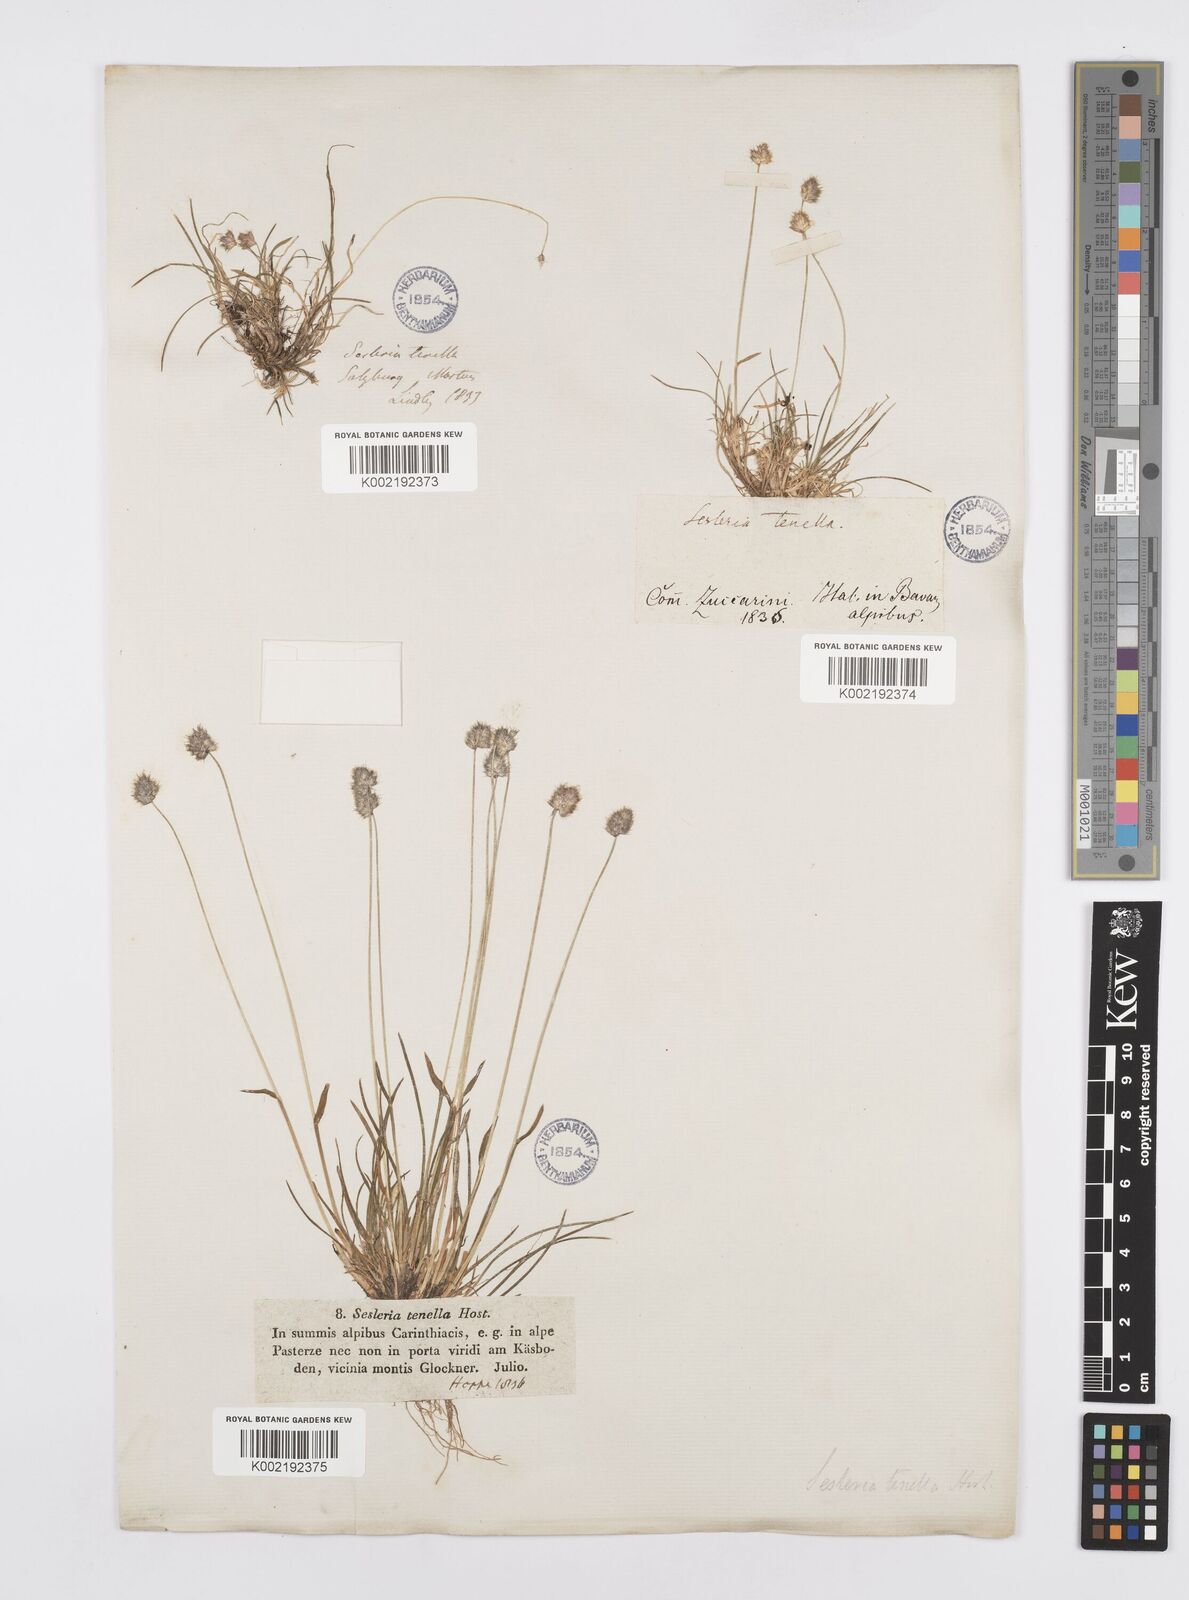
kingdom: Plantae
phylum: Tracheophyta
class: Liliopsida
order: Poales
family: Poaceae
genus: Psilathera
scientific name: Psilathera ovata
